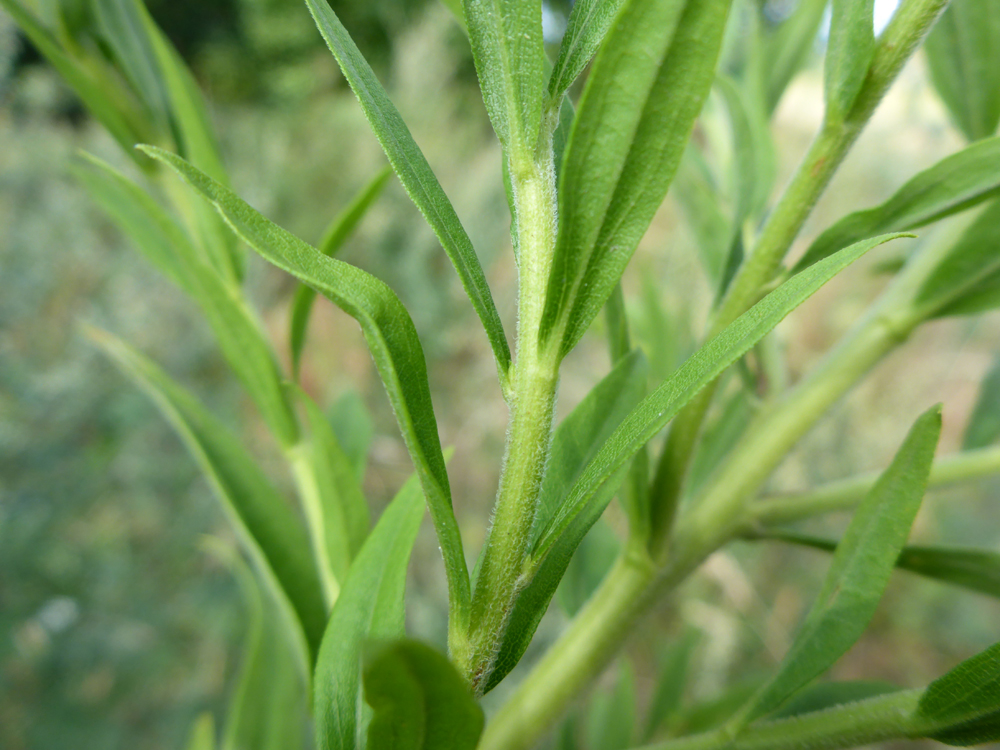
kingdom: Plantae
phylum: Tracheophyta
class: Magnoliopsida
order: Asterales
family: Asteraceae
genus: Solidago
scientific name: Solidago canadensis
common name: Canada goldenrod
